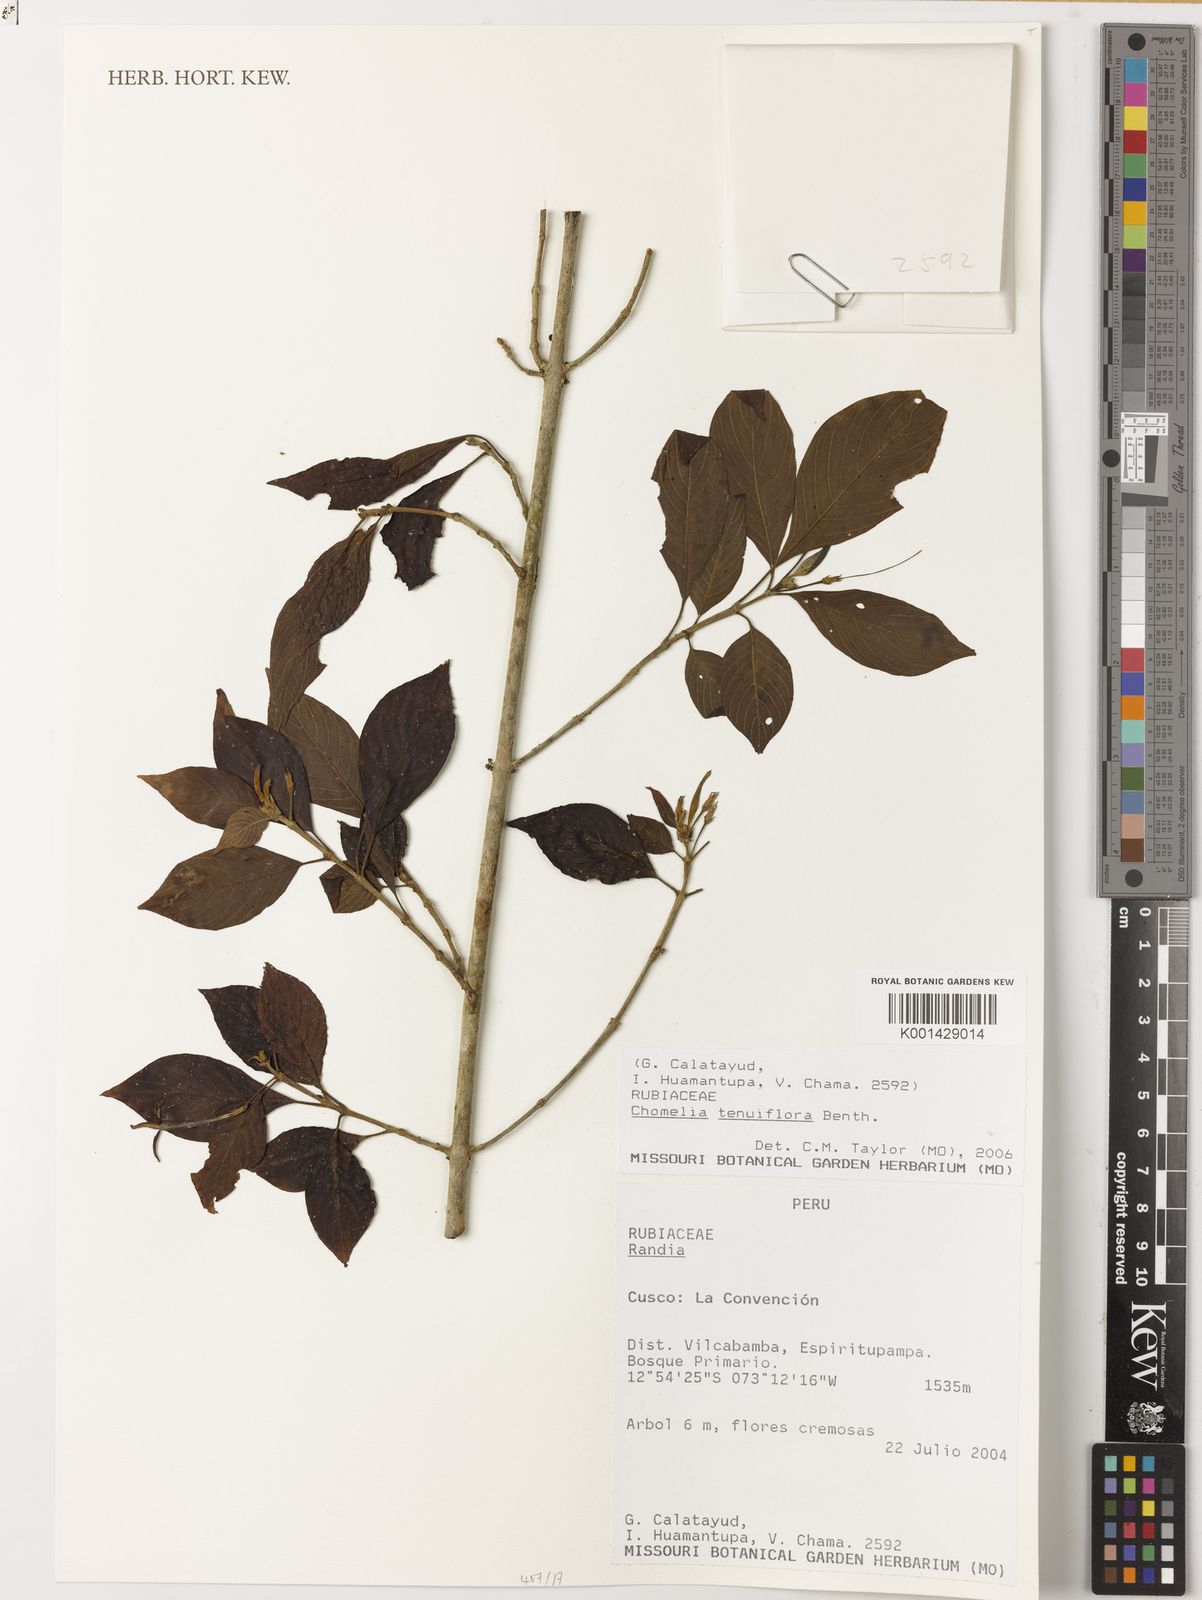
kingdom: Plantae
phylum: Tracheophyta
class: Magnoliopsida
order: Gentianales
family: Rubiaceae
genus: Chomelia
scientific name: Chomelia tenuiflora
